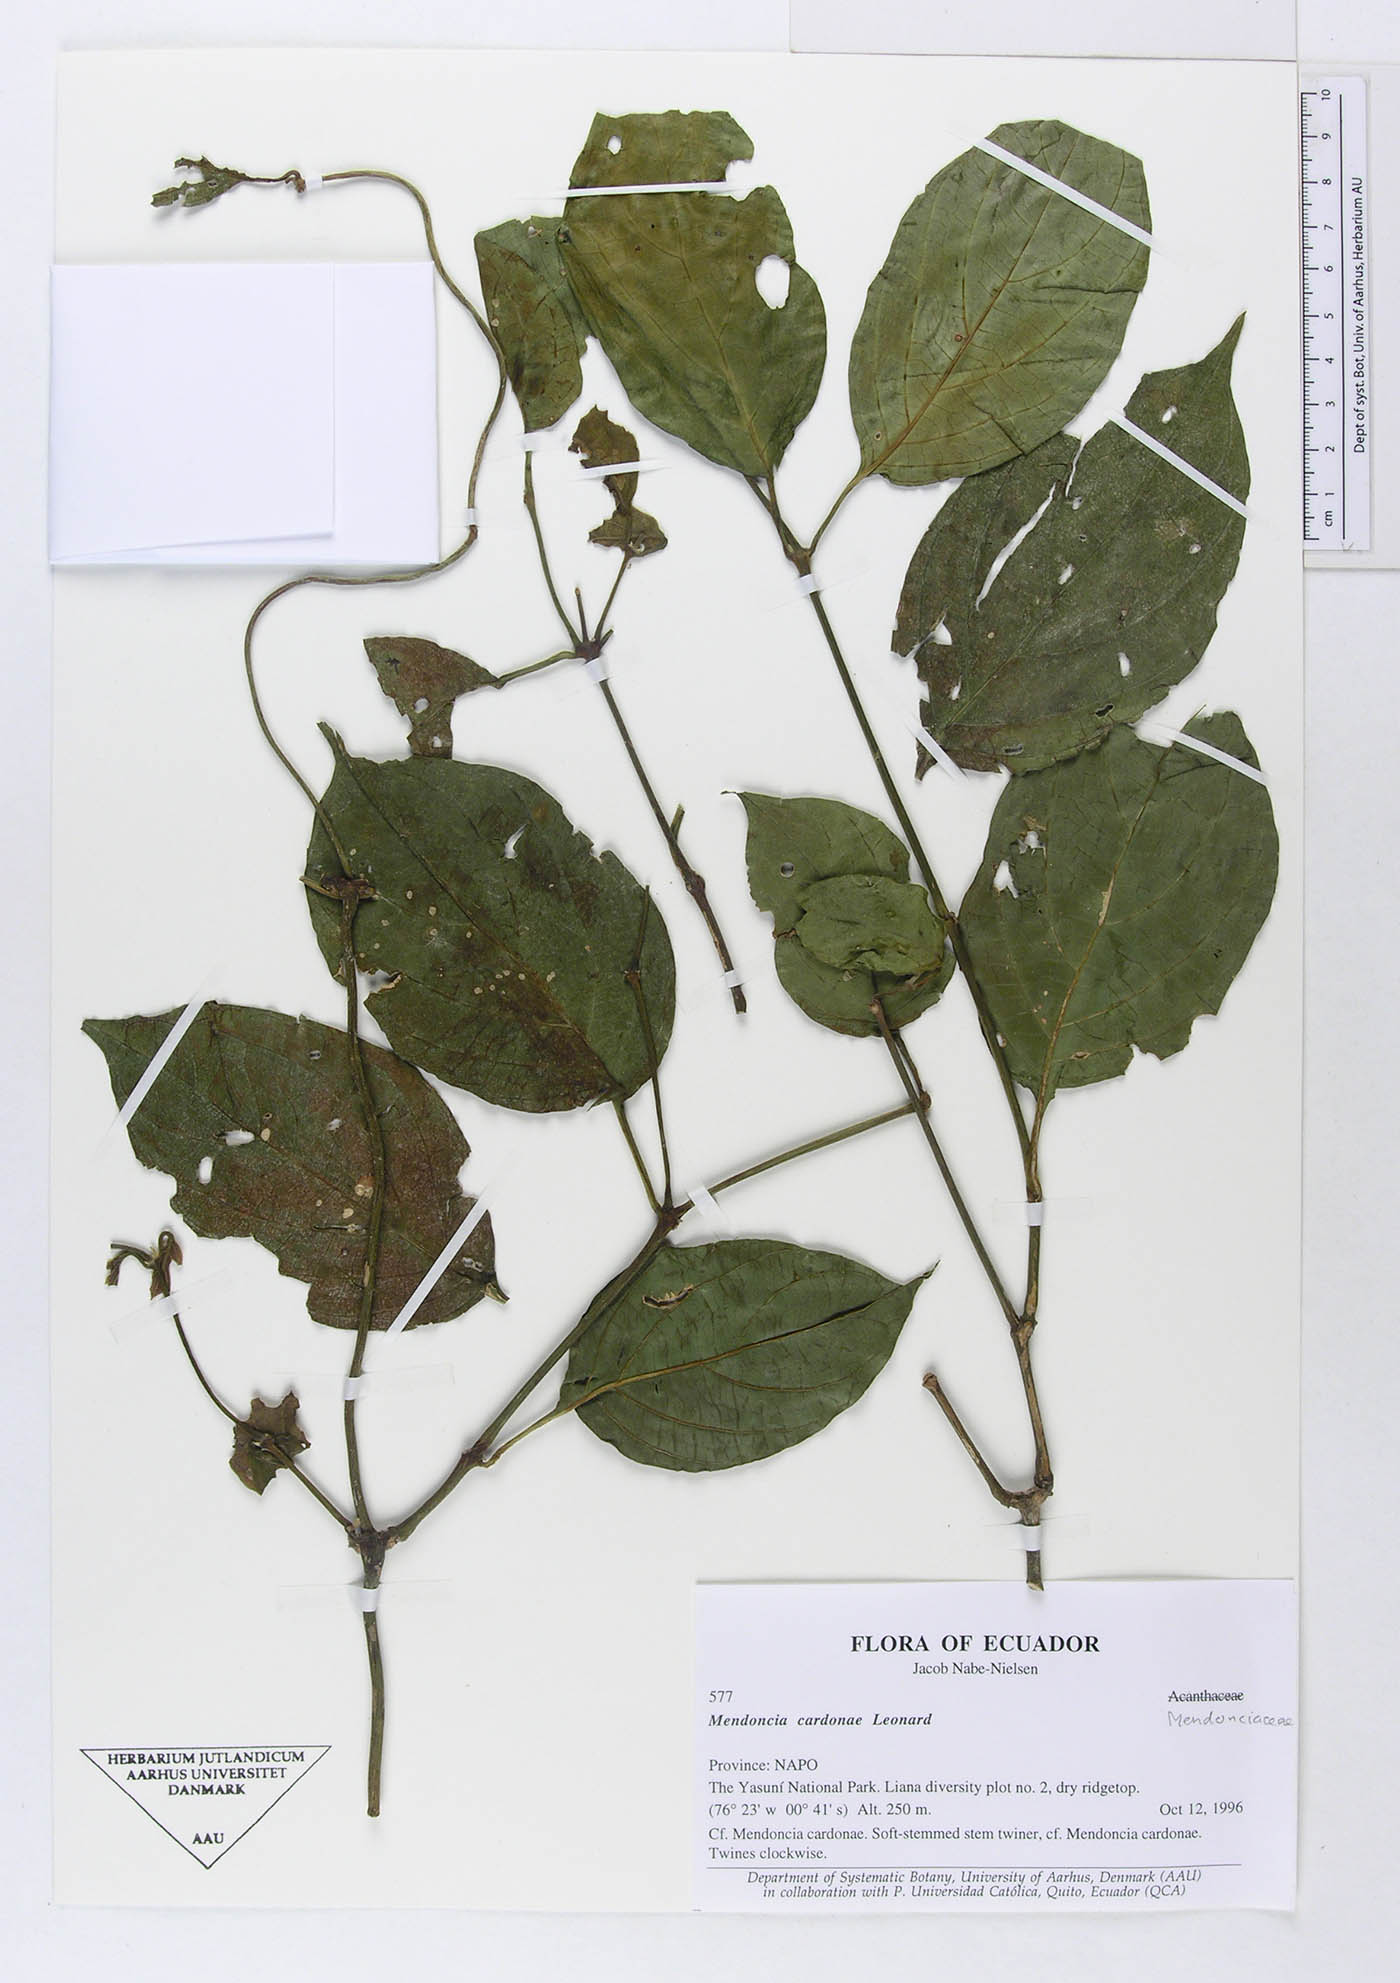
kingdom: Plantae
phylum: Tracheophyta
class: Magnoliopsida
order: Lamiales
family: Acanthaceae
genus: Mendoncia
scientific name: Mendoncia cardonae
